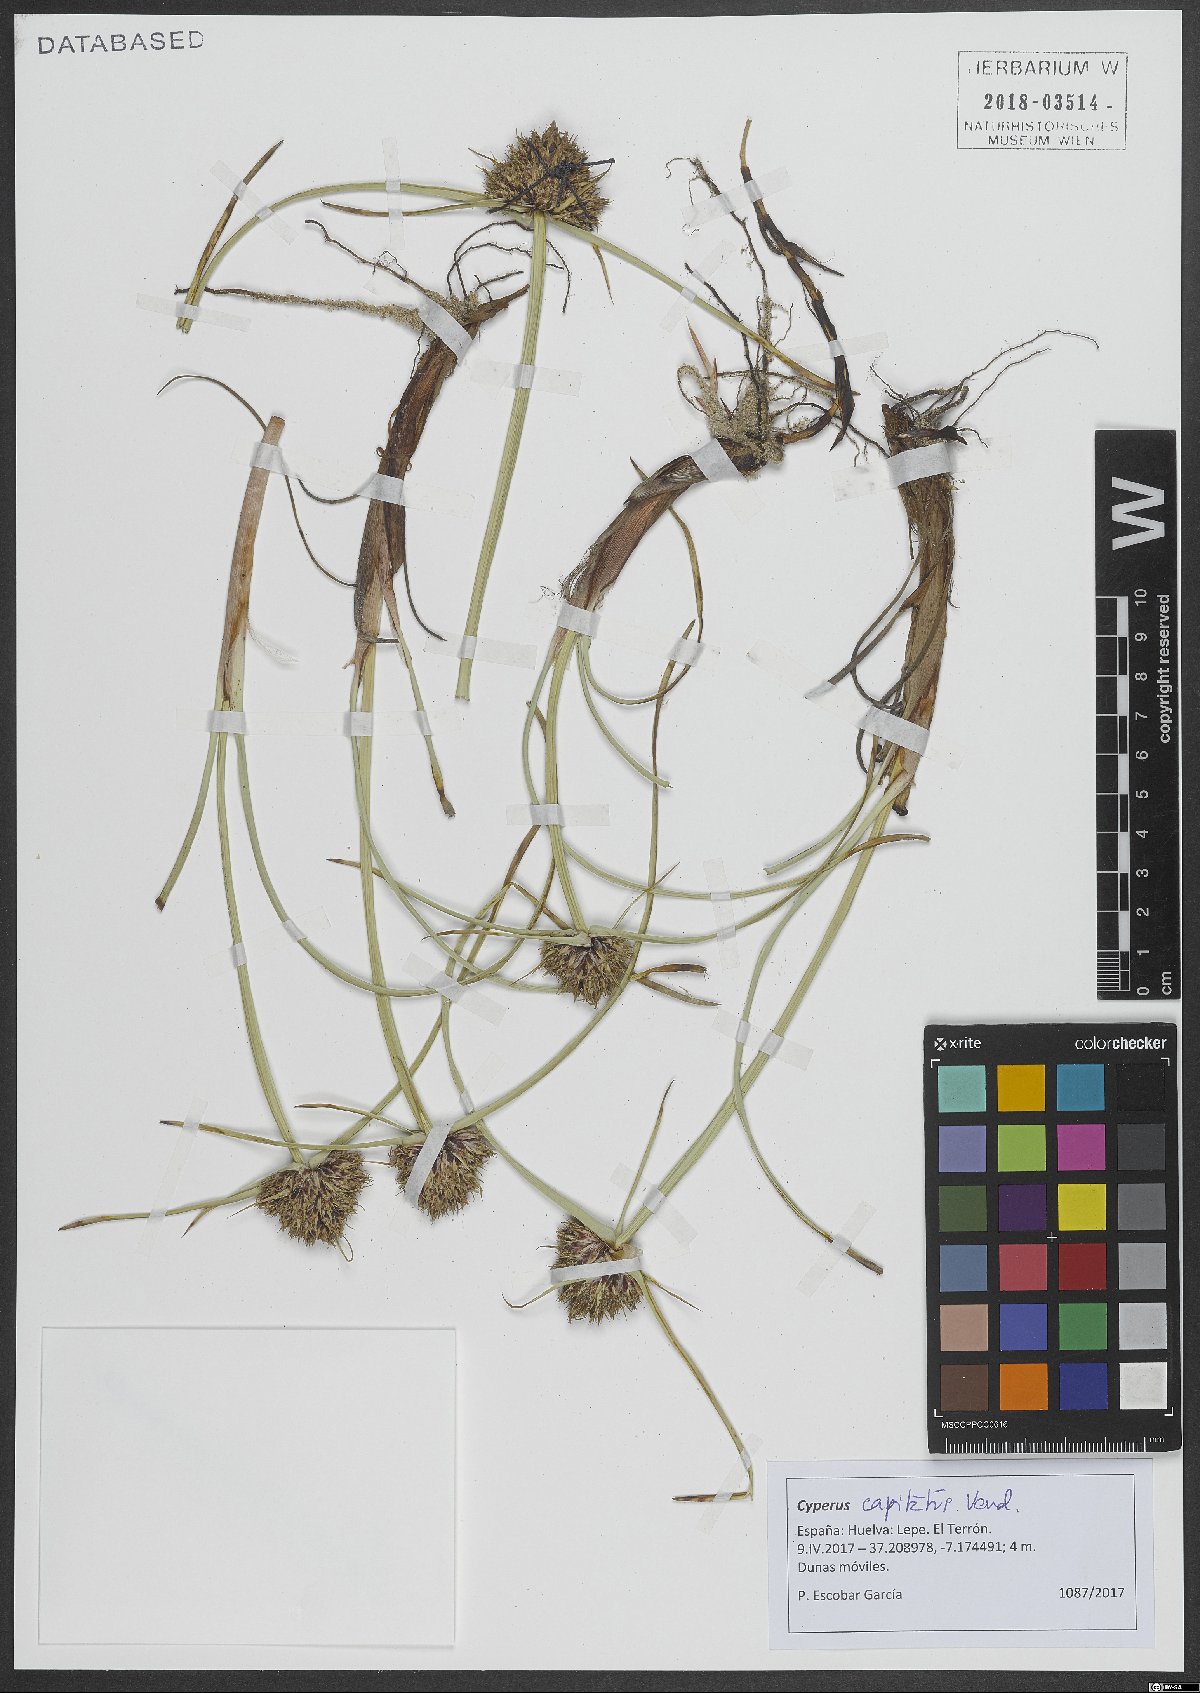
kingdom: Plantae
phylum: Tracheophyta
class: Liliopsida
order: Poales
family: Cyperaceae
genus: Cyperus
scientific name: Cyperus capitatus
